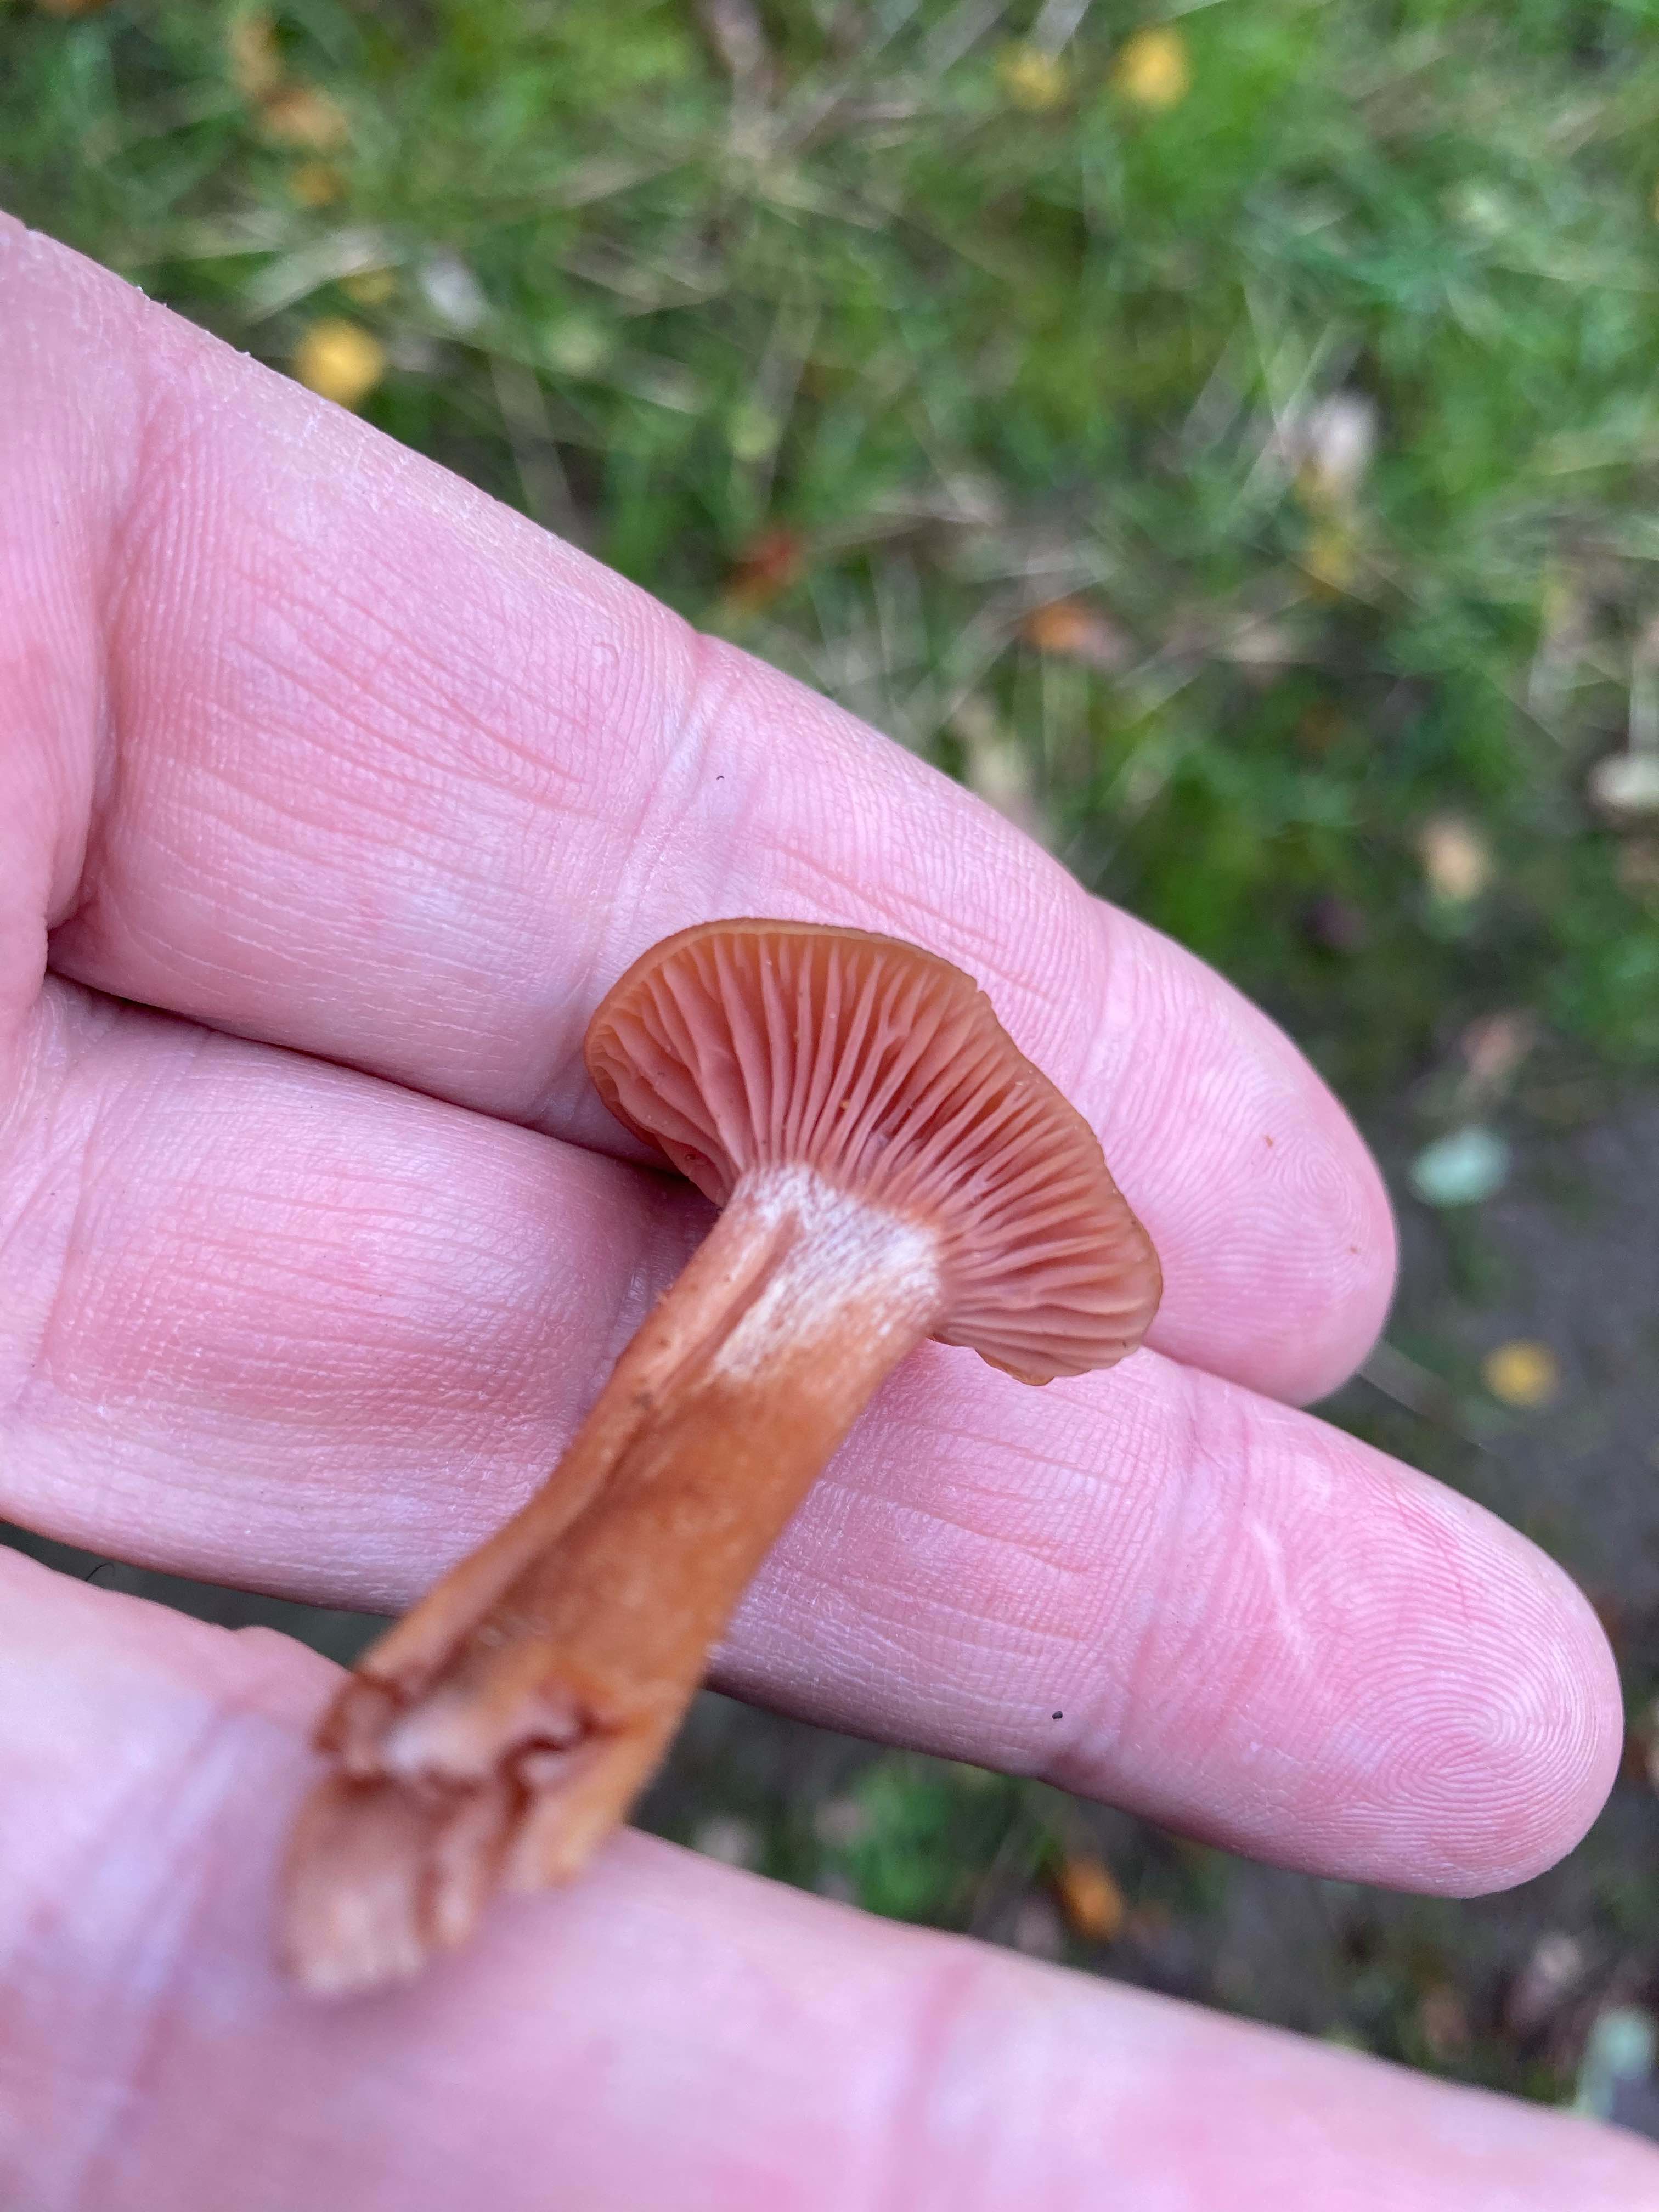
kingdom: Fungi
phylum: Basidiomycota
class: Agaricomycetes
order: Agaricales
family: Hydnangiaceae
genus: Laccaria
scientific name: Laccaria
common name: ametysthat
